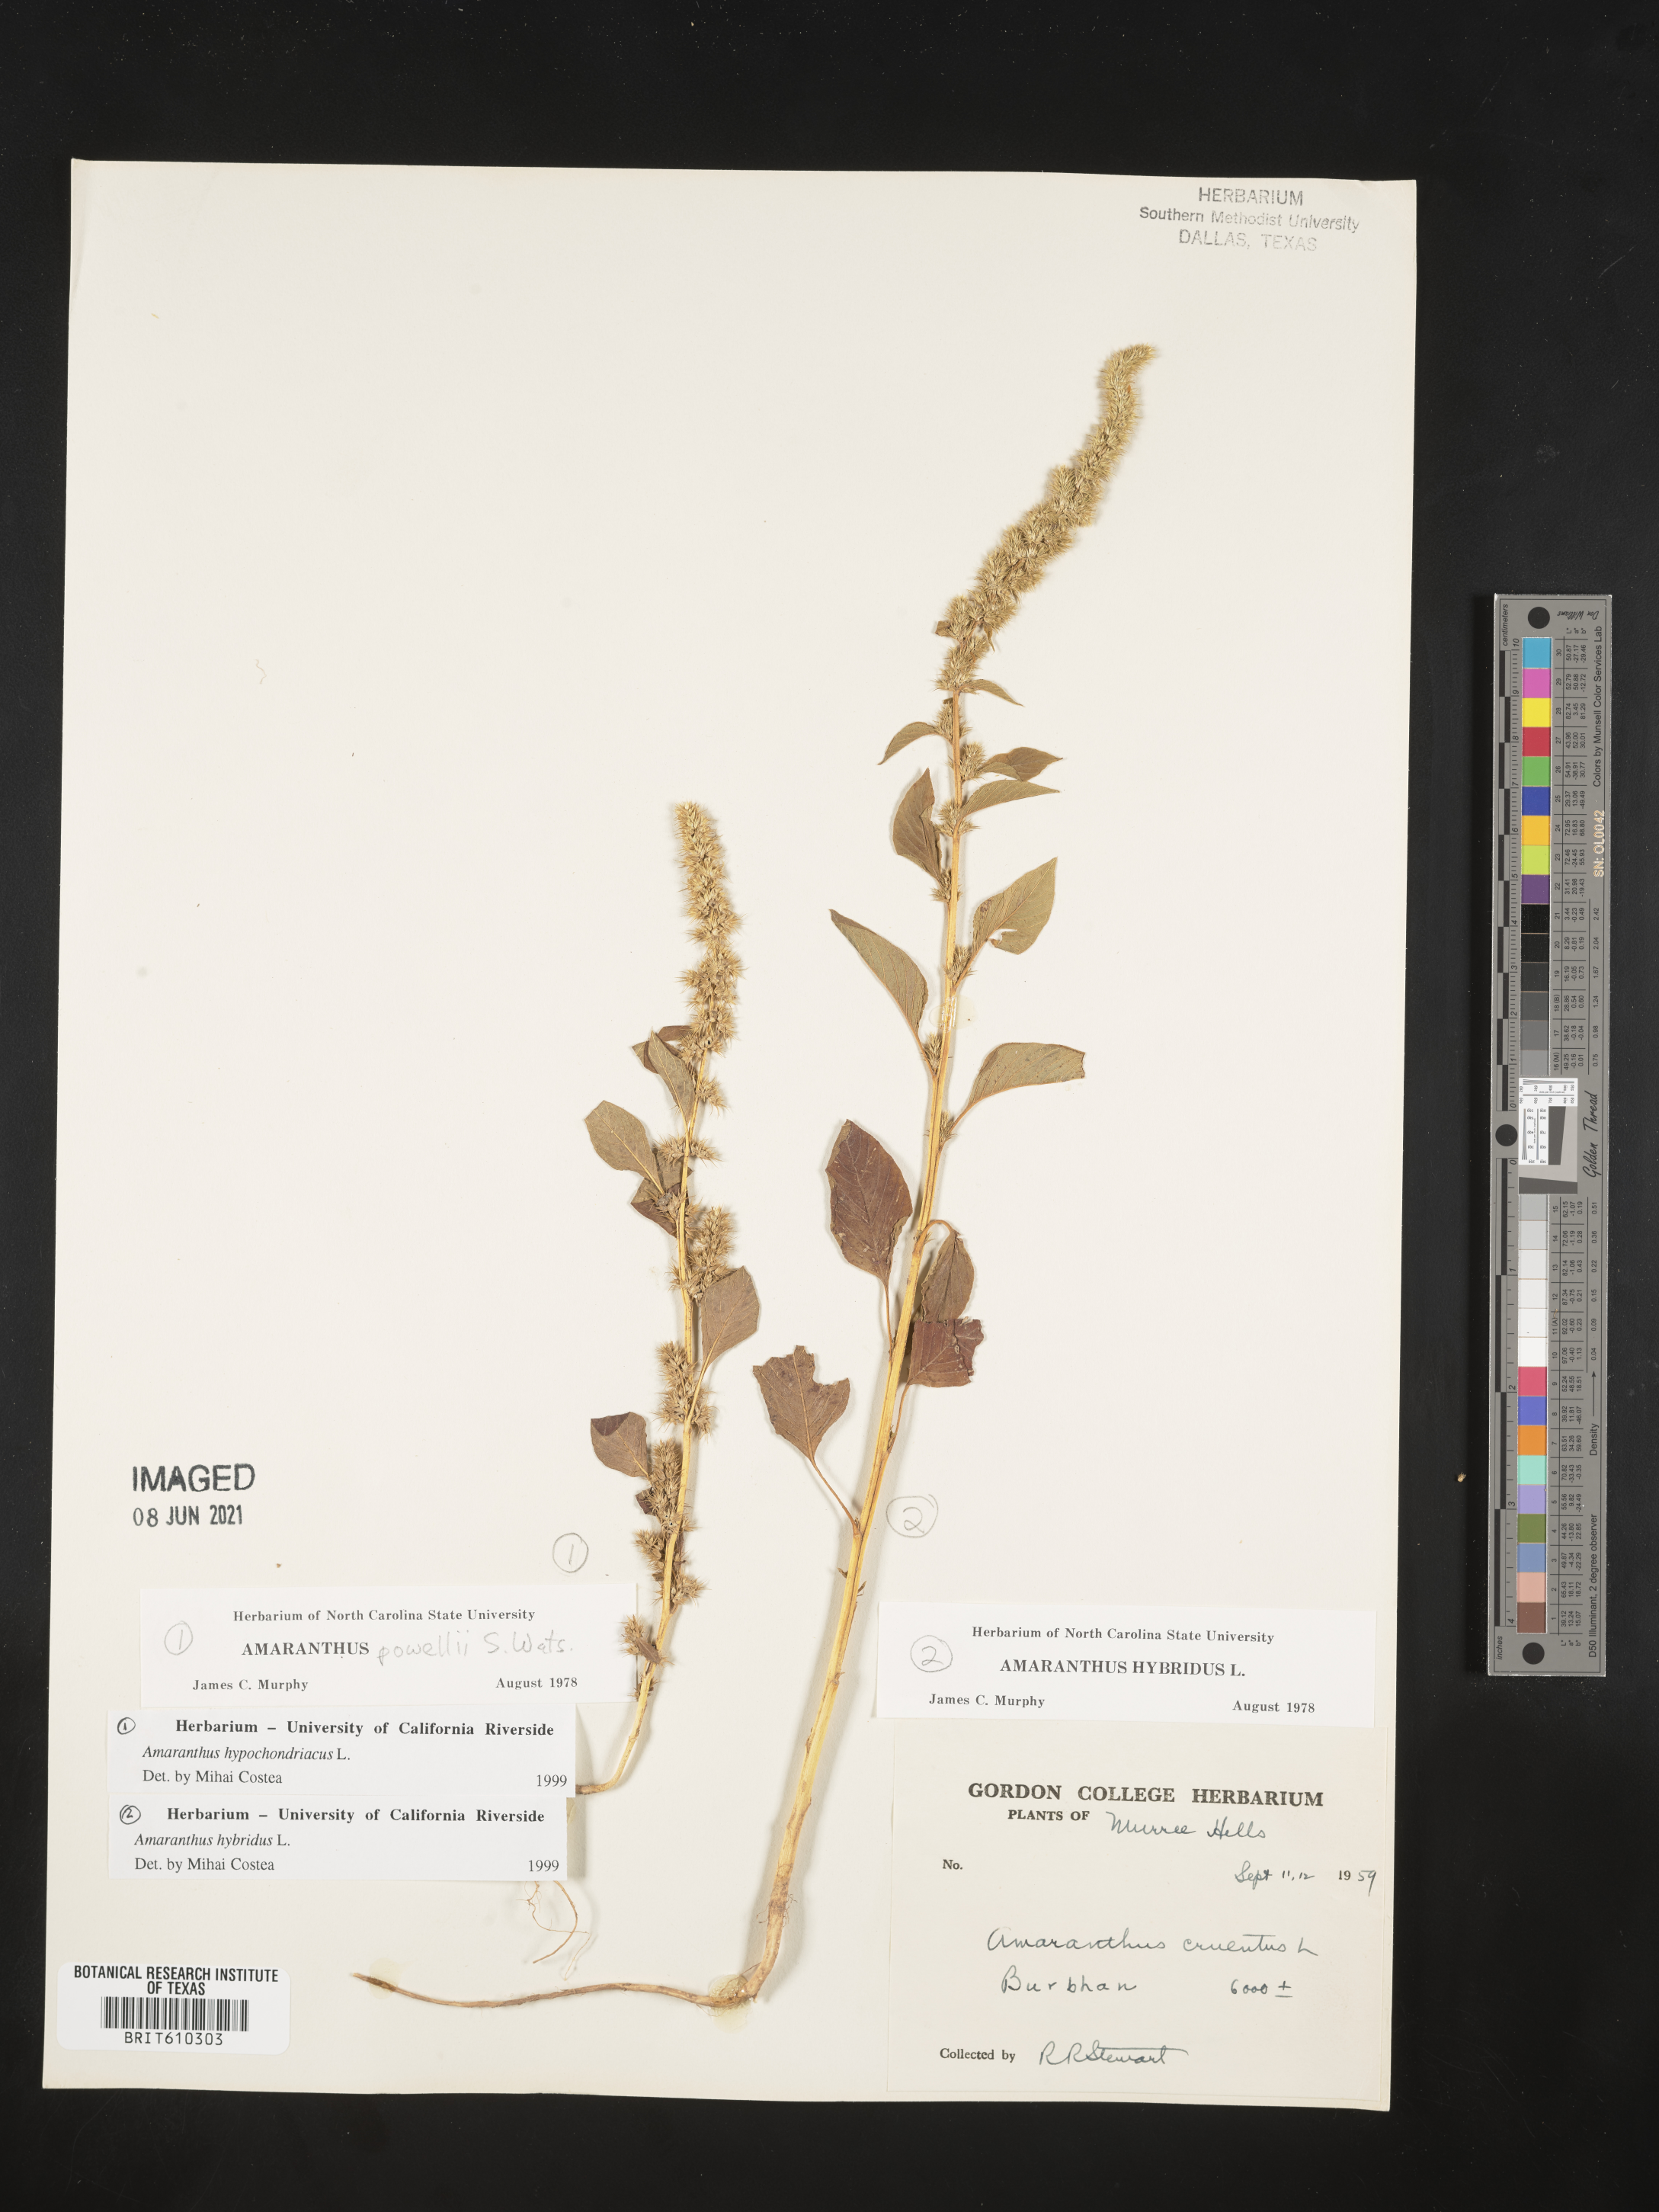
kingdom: Plantae
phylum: Tracheophyta
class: Magnoliopsida
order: Caryophyllales
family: Amaranthaceae
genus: Amaranthus
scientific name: Amaranthus hypochondriacus
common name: Prince's-feather
